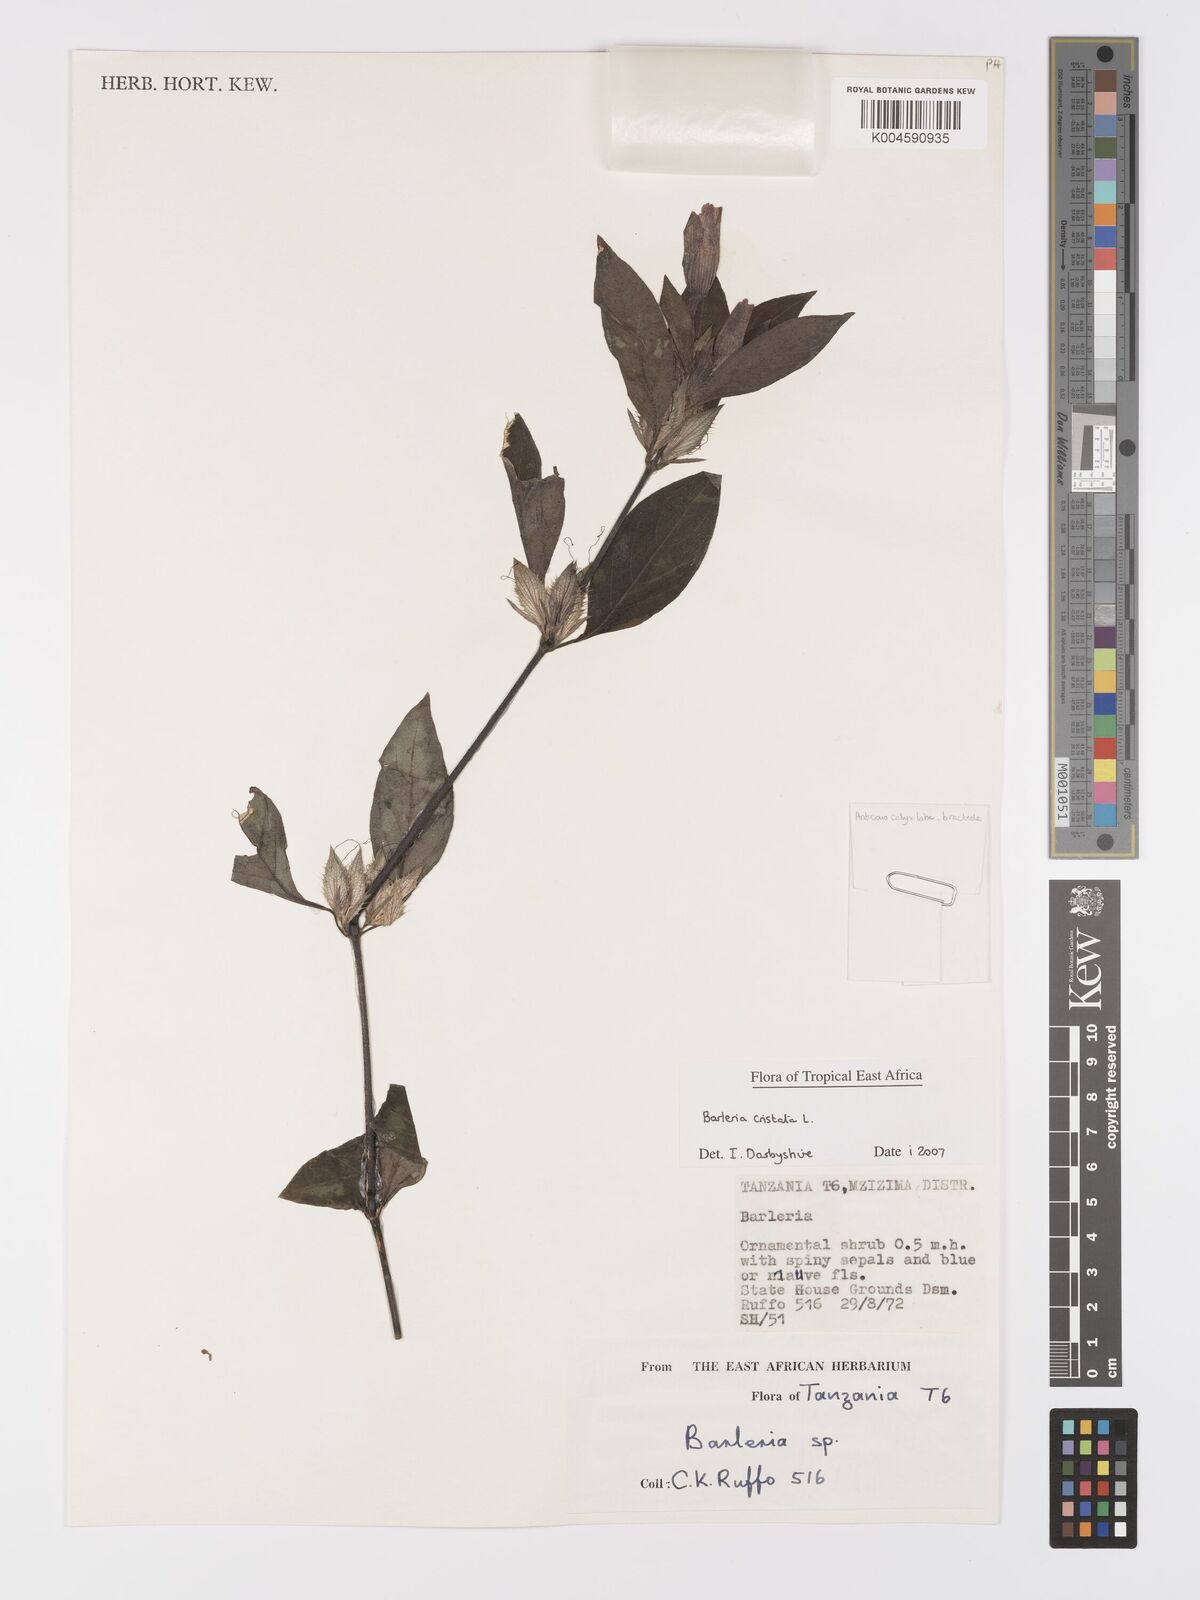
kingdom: Plantae
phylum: Tracheophyta
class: Magnoliopsida
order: Lamiales
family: Acanthaceae
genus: Barleria
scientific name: Barleria cristata
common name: Crested philippine violet
